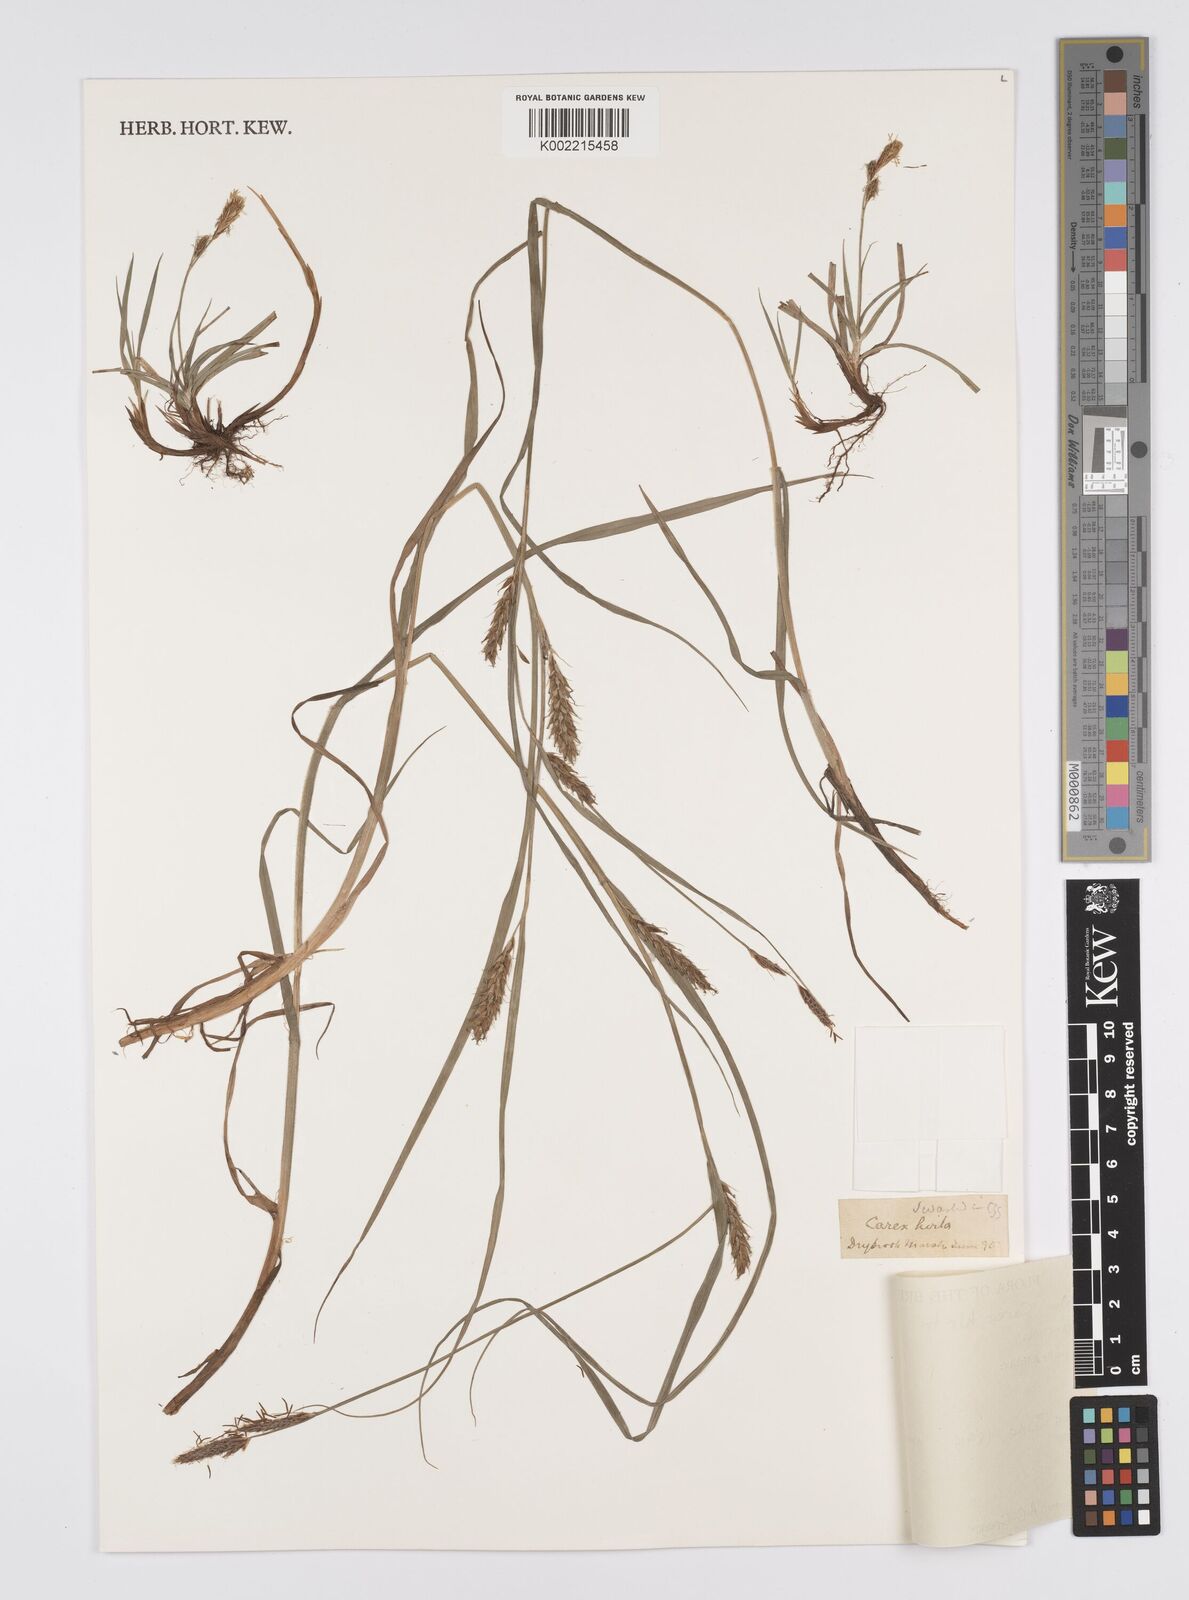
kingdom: Plantae
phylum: Tracheophyta
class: Liliopsida
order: Poales
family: Cyperaceae
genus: Carex
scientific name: Carex hirta
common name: Hairy sedge
